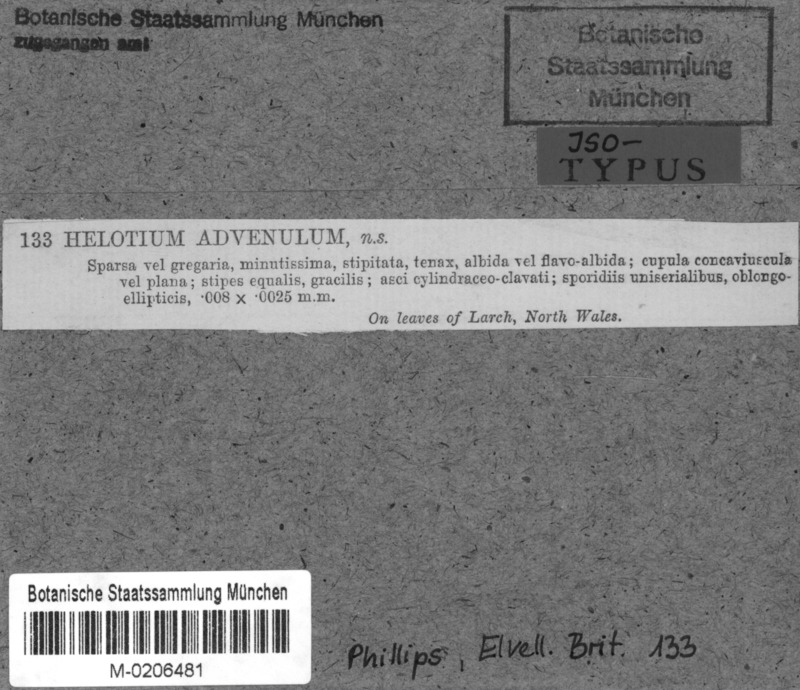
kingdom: Fungi
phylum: Ascomycota
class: Leotiomycetes
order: Helotiales
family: Sclerotiniaceae
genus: Moellerodiscus
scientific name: Moellerodiscus advenulus
